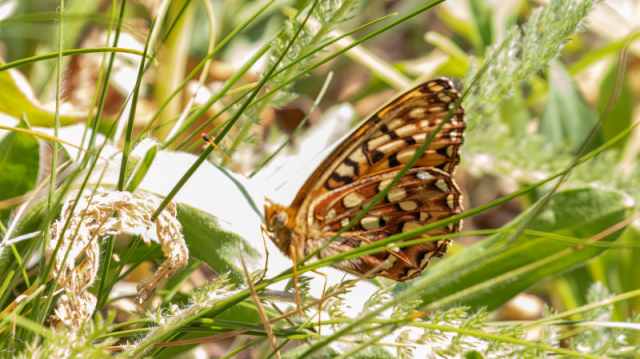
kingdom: Animalia
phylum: Arthropoda
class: Insecta
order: Lepidoptera
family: Nymphalidae
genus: Speyeria
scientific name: Speyeria zerene
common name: Zerene Fritillary
